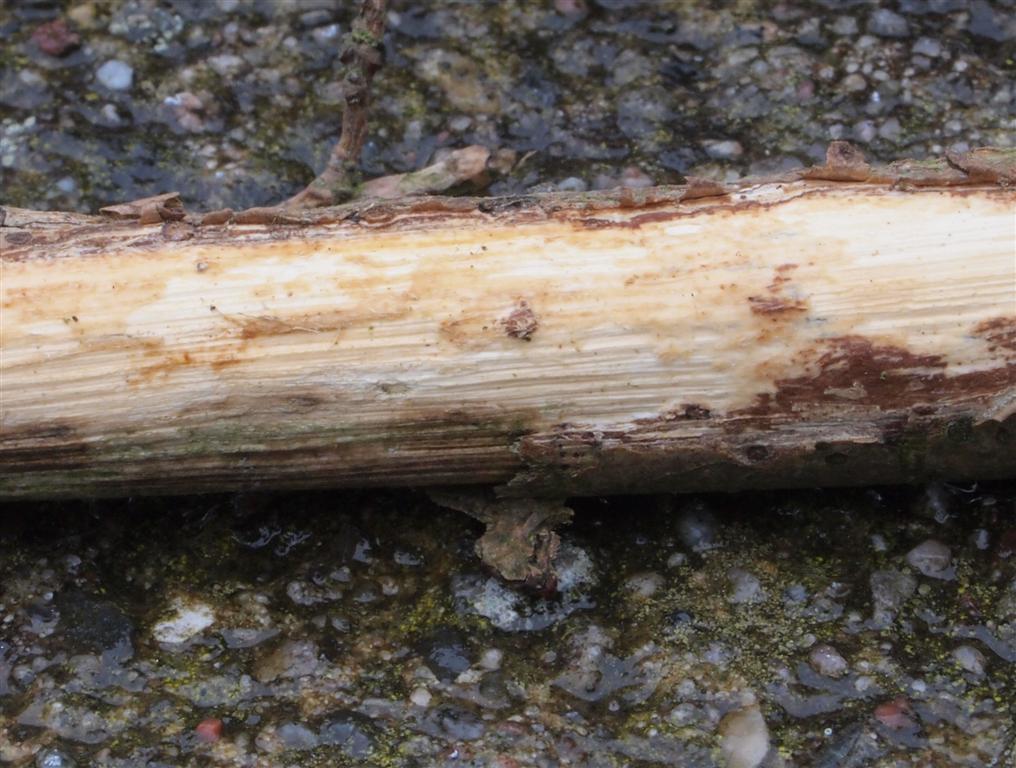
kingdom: Fungi
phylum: Basidiomycota
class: Agaricomycetes
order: Corticiales
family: Vuilleminiaceae
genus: Vuilleminia
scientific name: Vuilleminia comedens
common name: almindelig barksprænger
